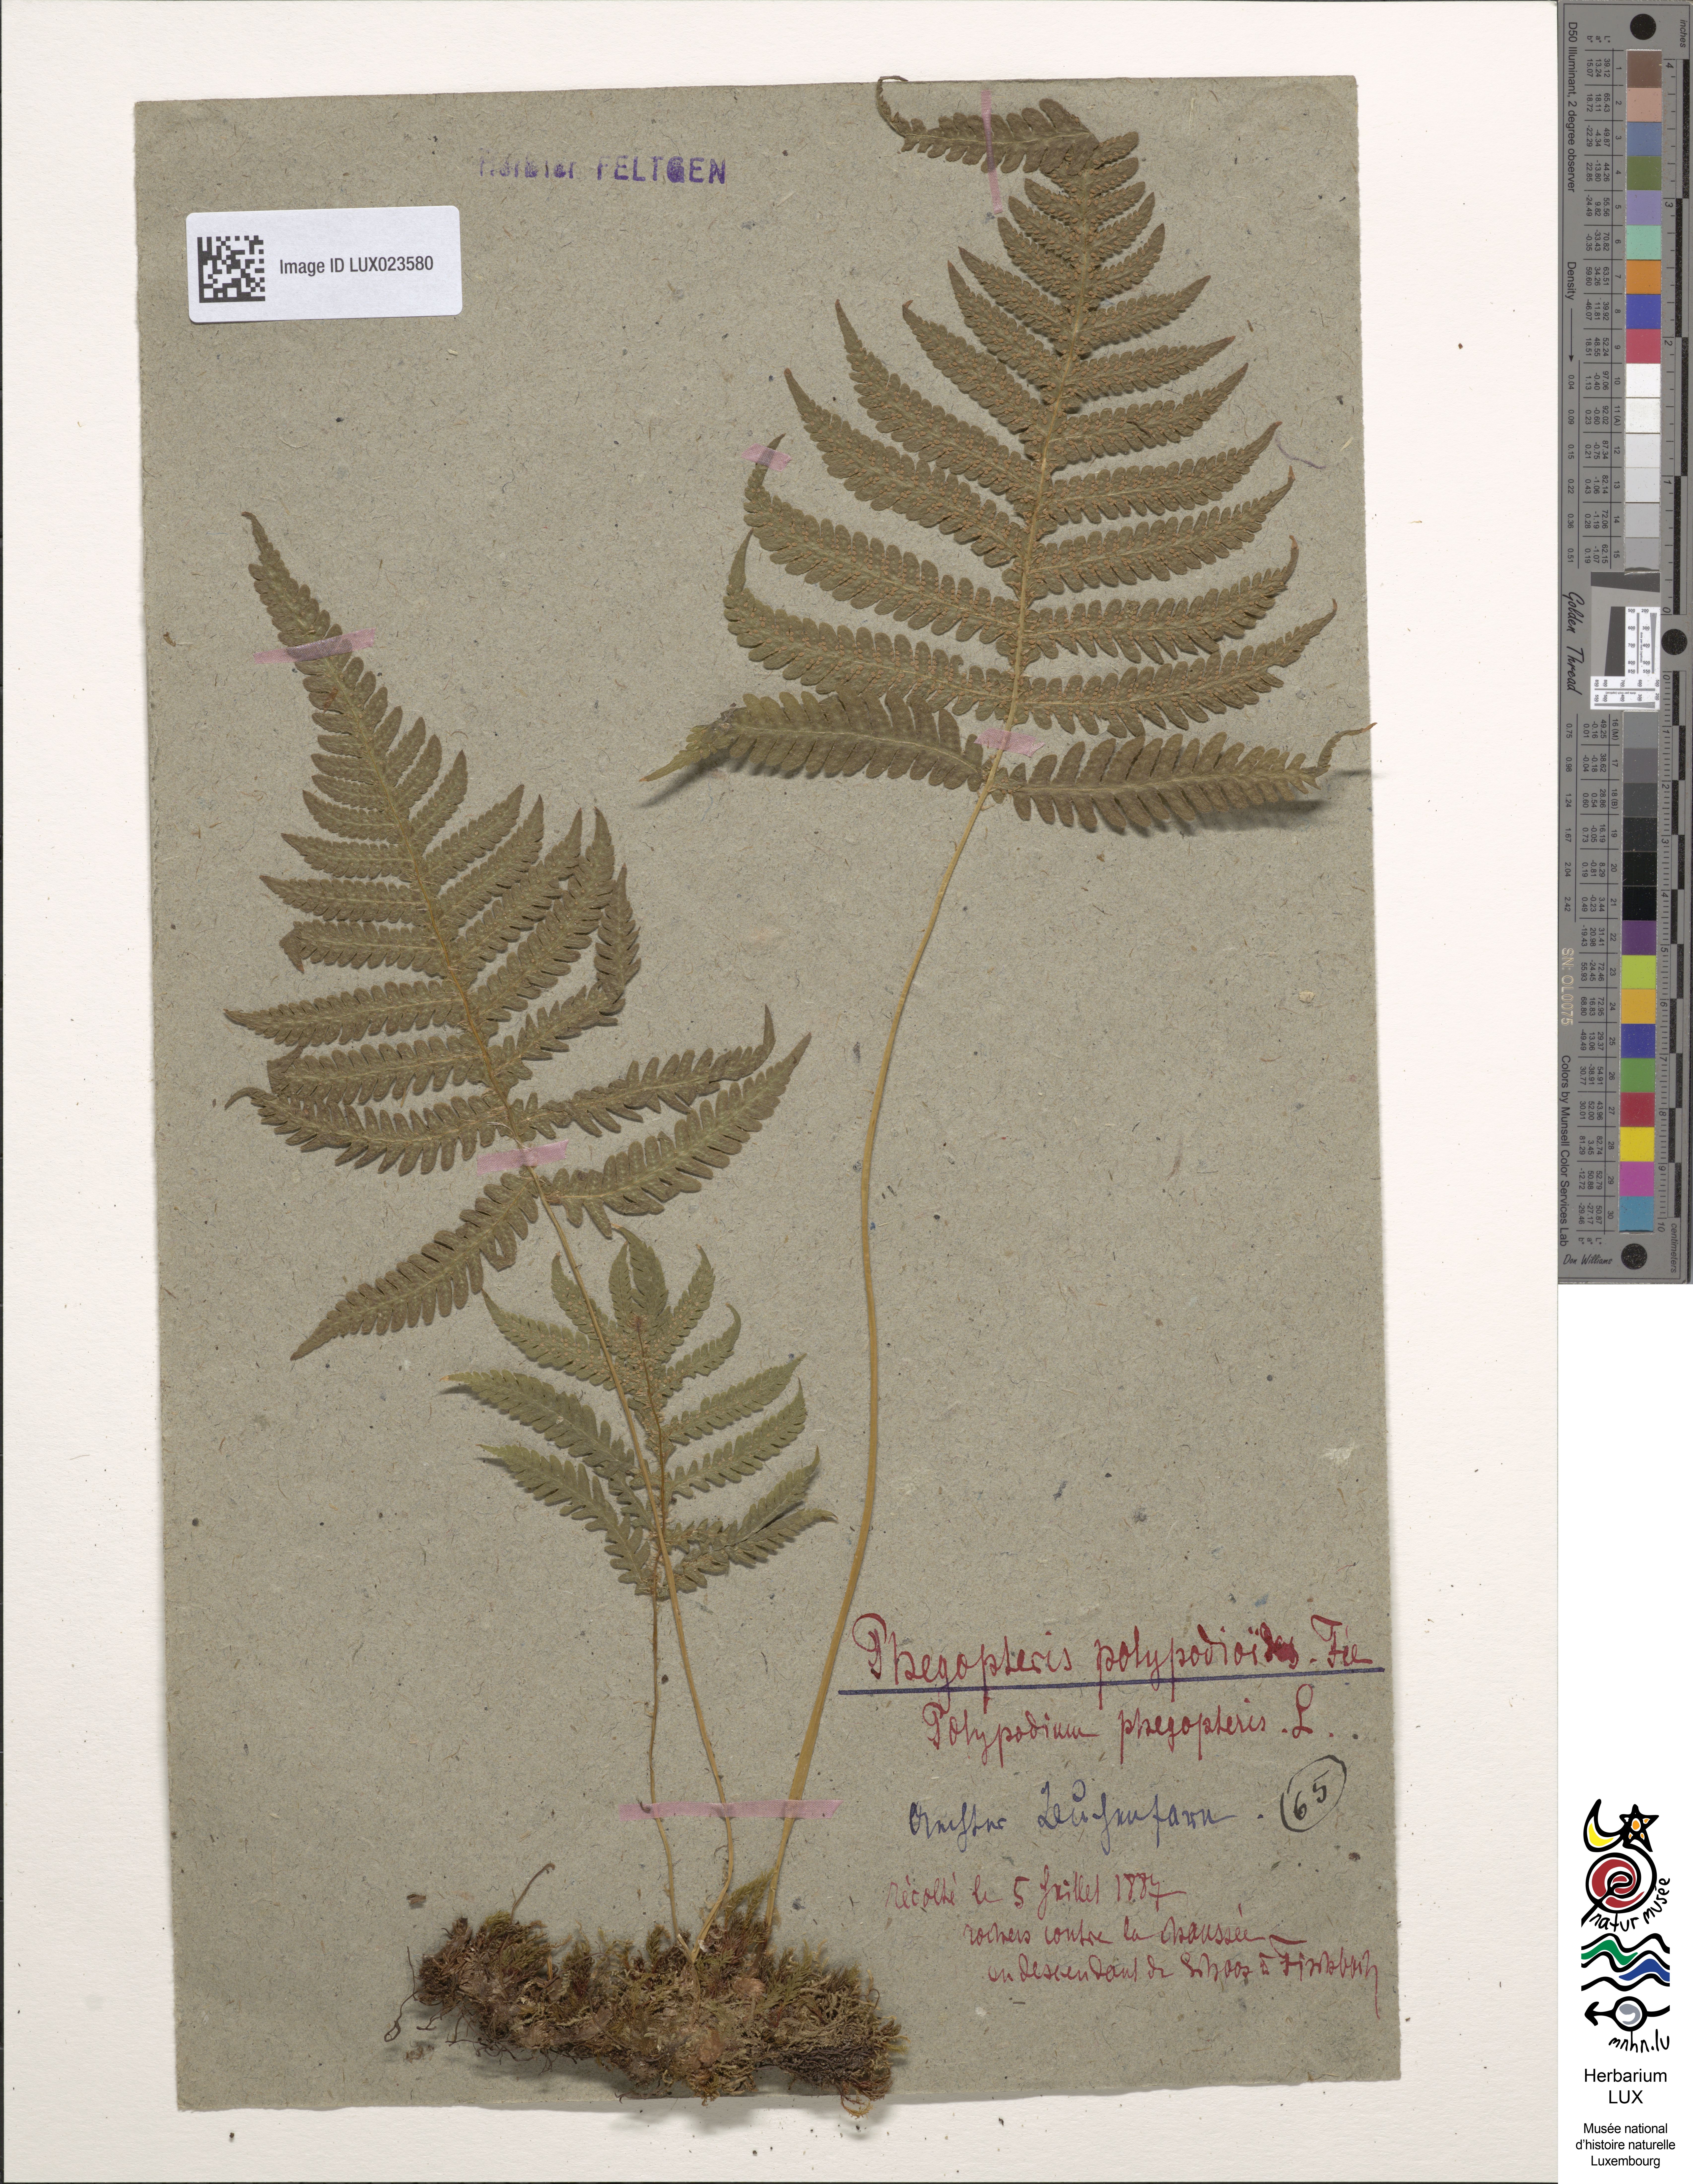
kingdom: Plantae
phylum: Tracheophyta
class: Polypodiopsida
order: Polypodiales
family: Thelypteridaceae
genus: Phegopteris
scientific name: Phegopteris connectilis
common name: Beech fern
